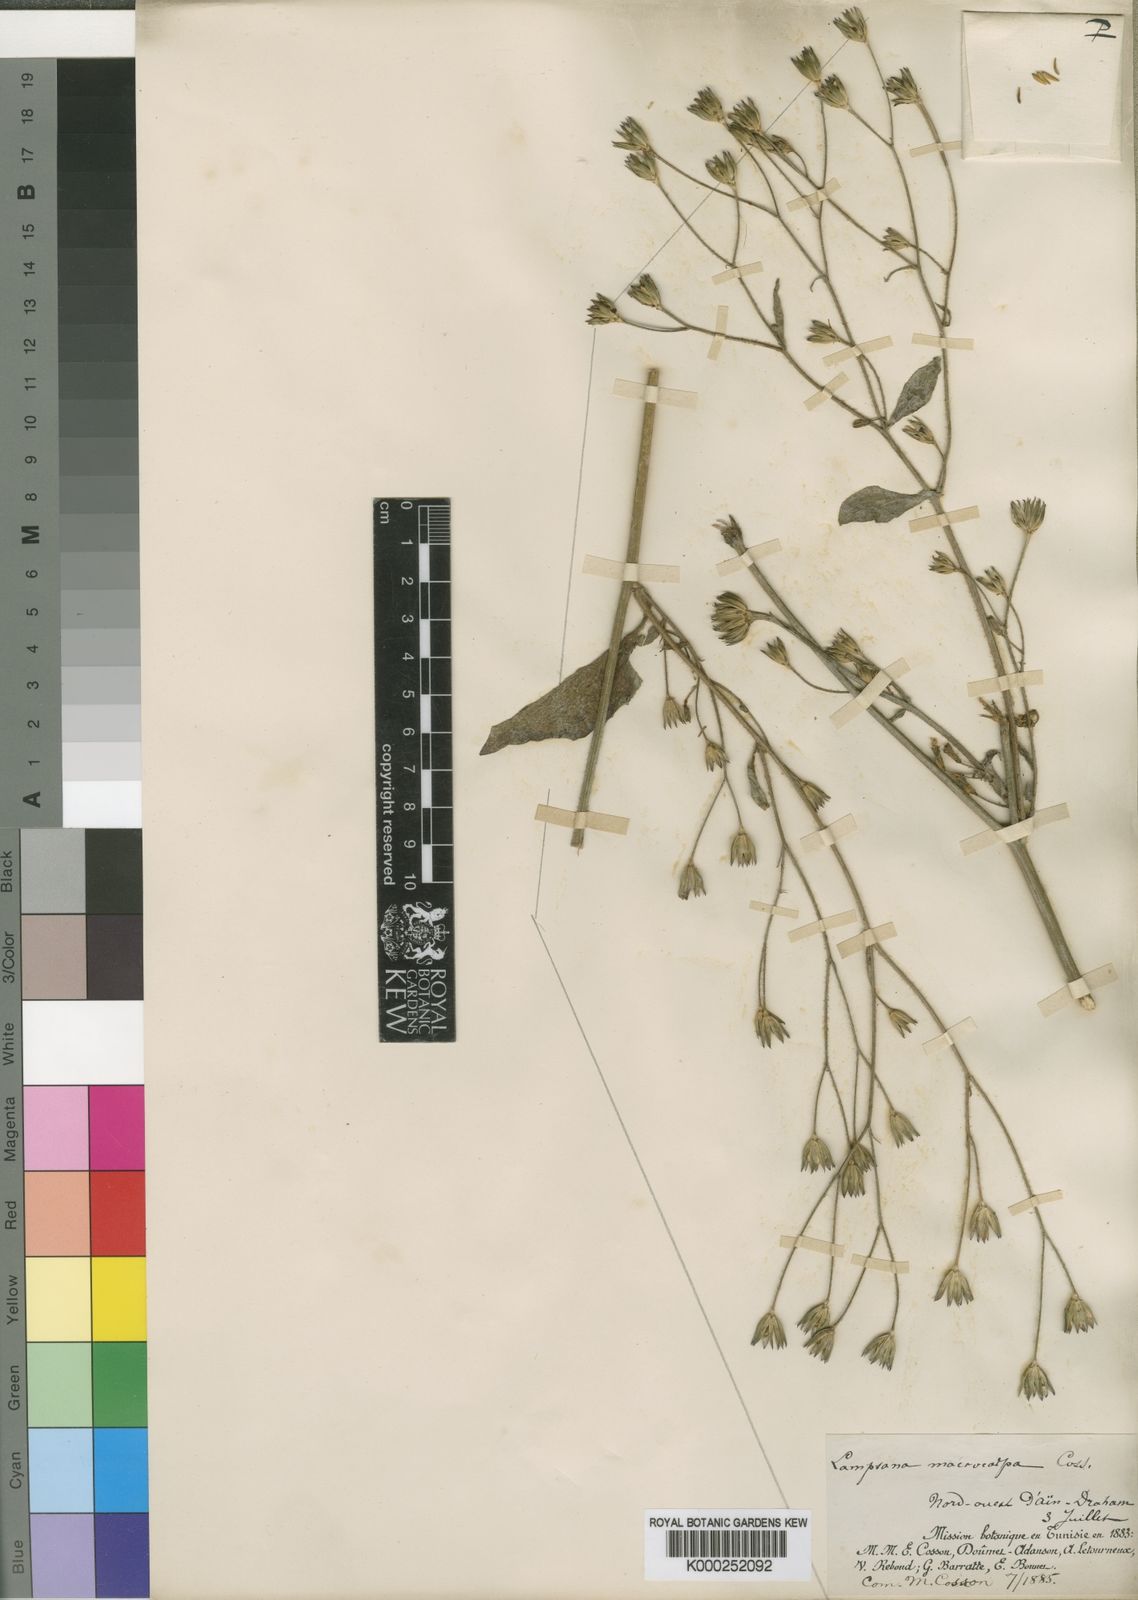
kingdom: Plantae
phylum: Tracheophyta
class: Magnoliopsida
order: Asterales
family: Asteraceae
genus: Lapsana
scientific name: Lapsana communis
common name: Nipplewort
